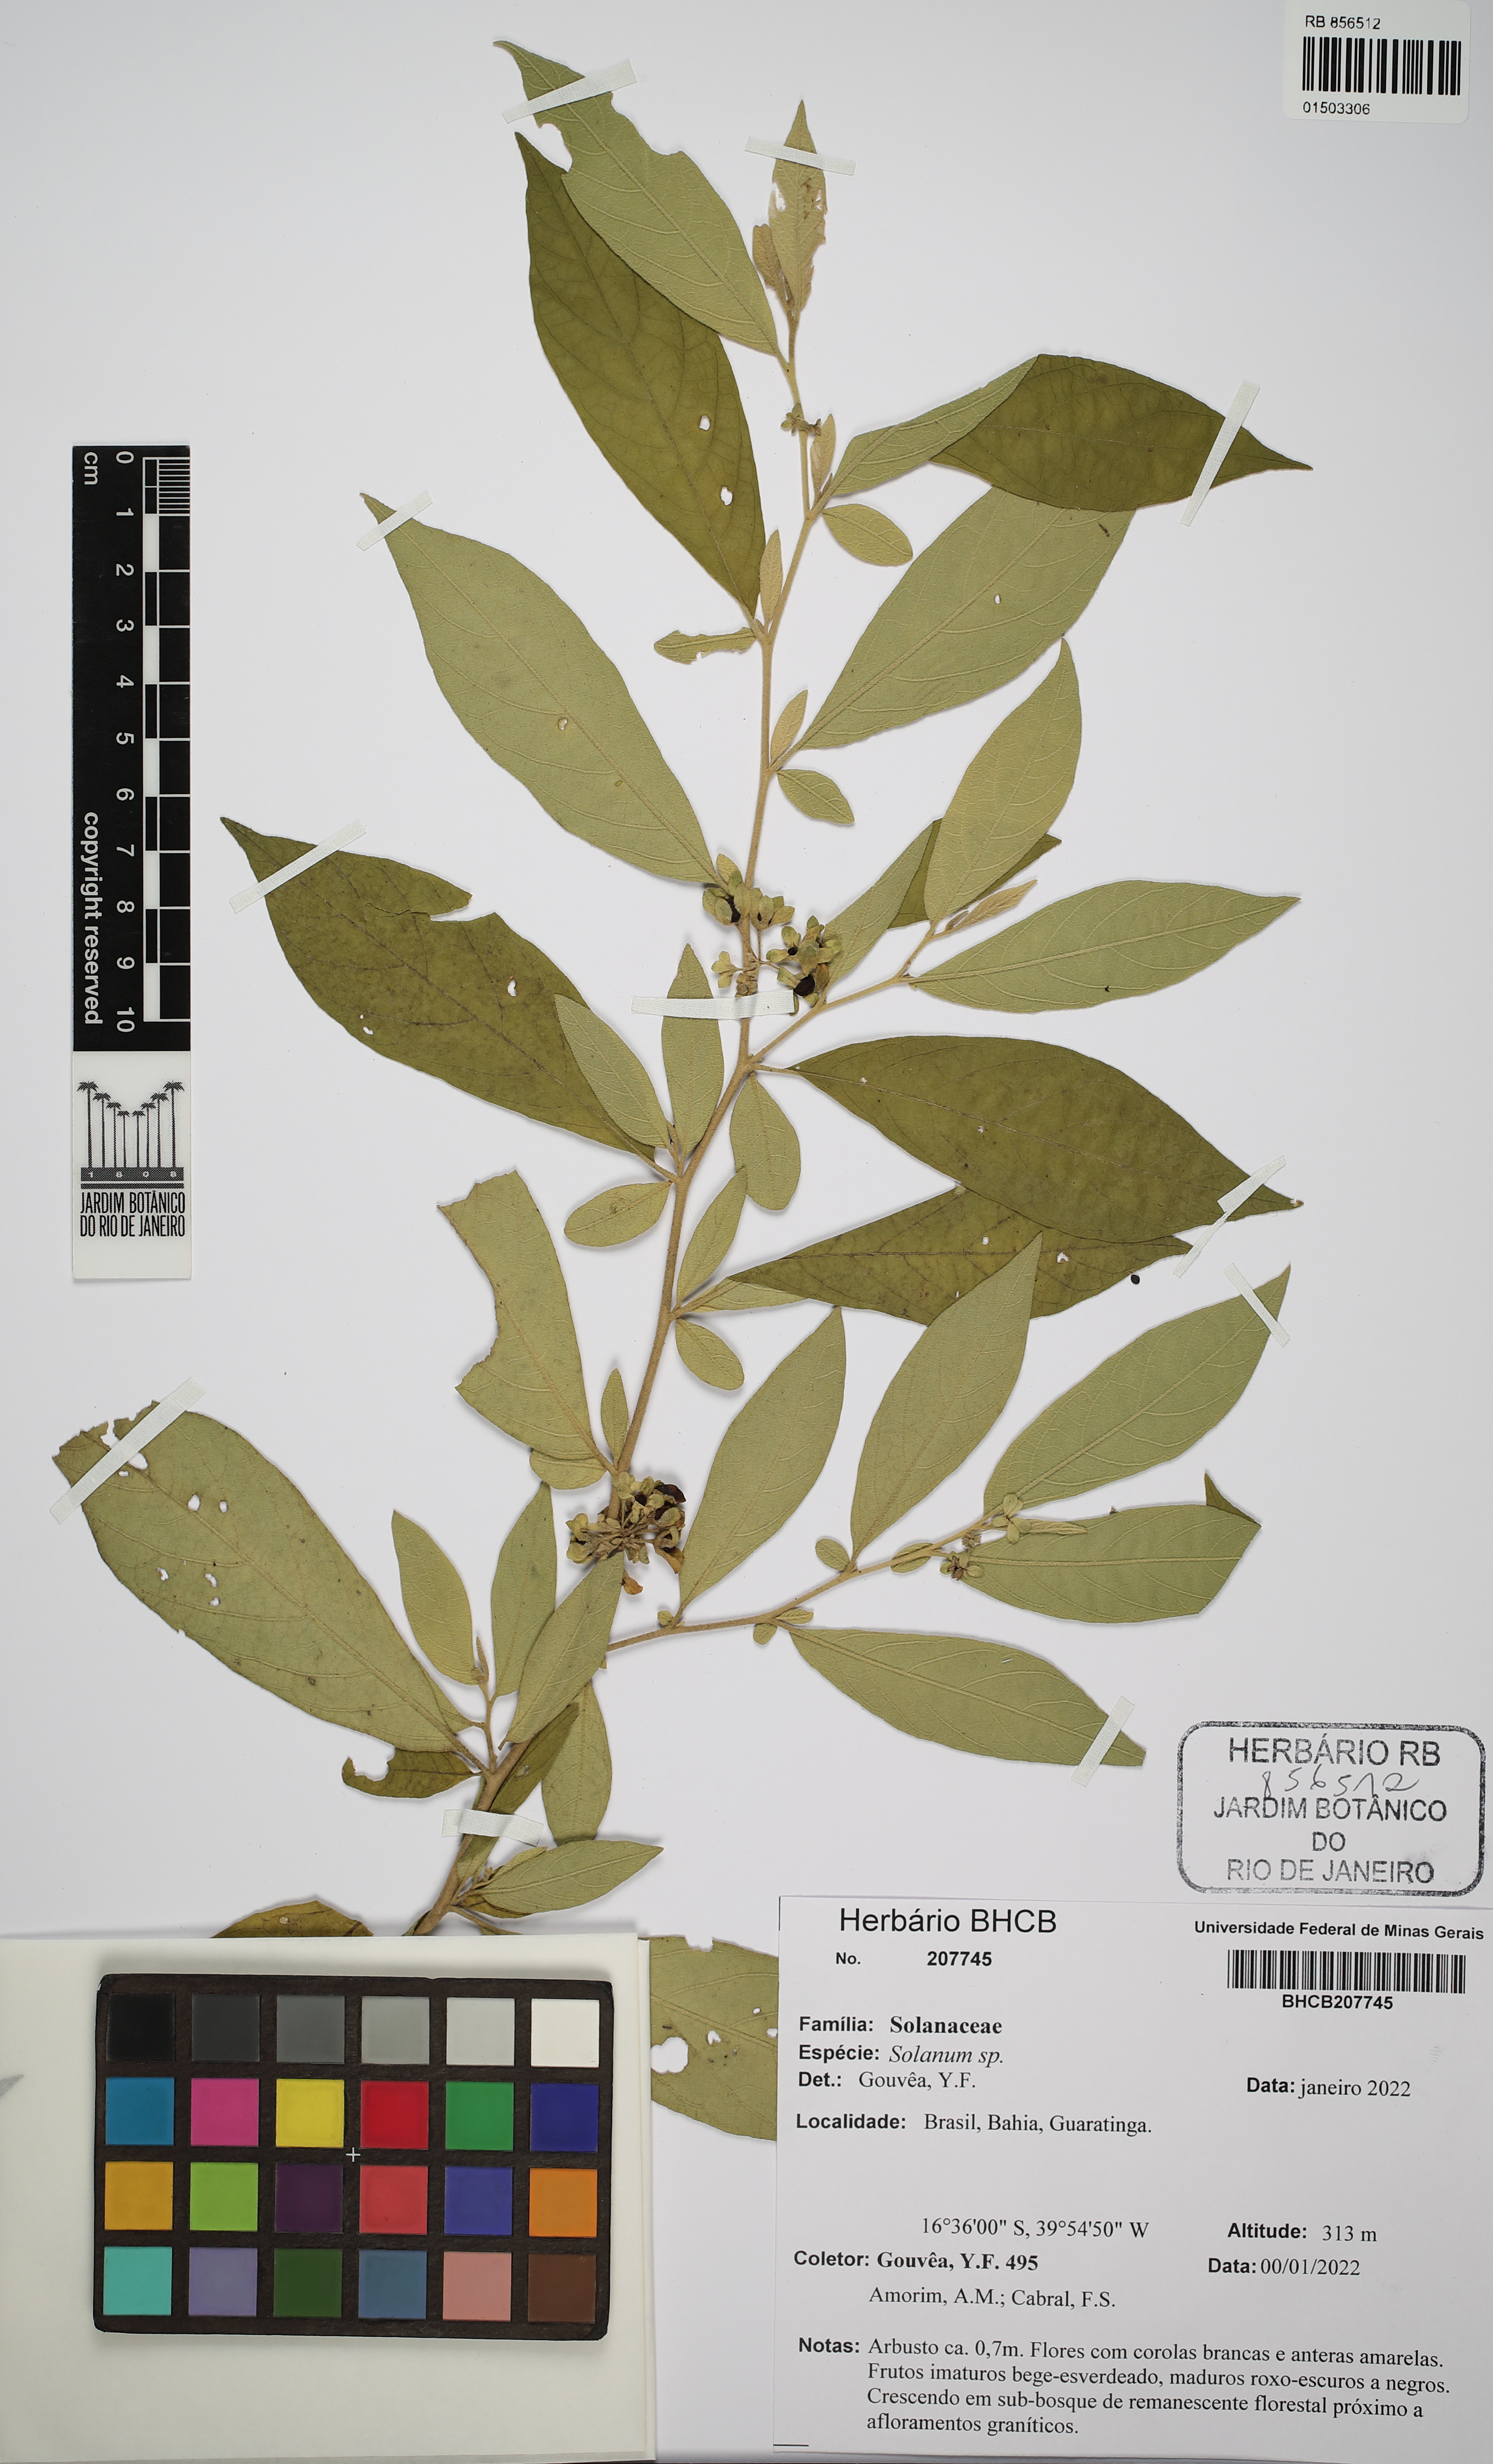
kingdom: Plantae
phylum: Tracheophyta
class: Magnoliopsida
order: Solanales
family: Solanaceae
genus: Solanum
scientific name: Solanum
